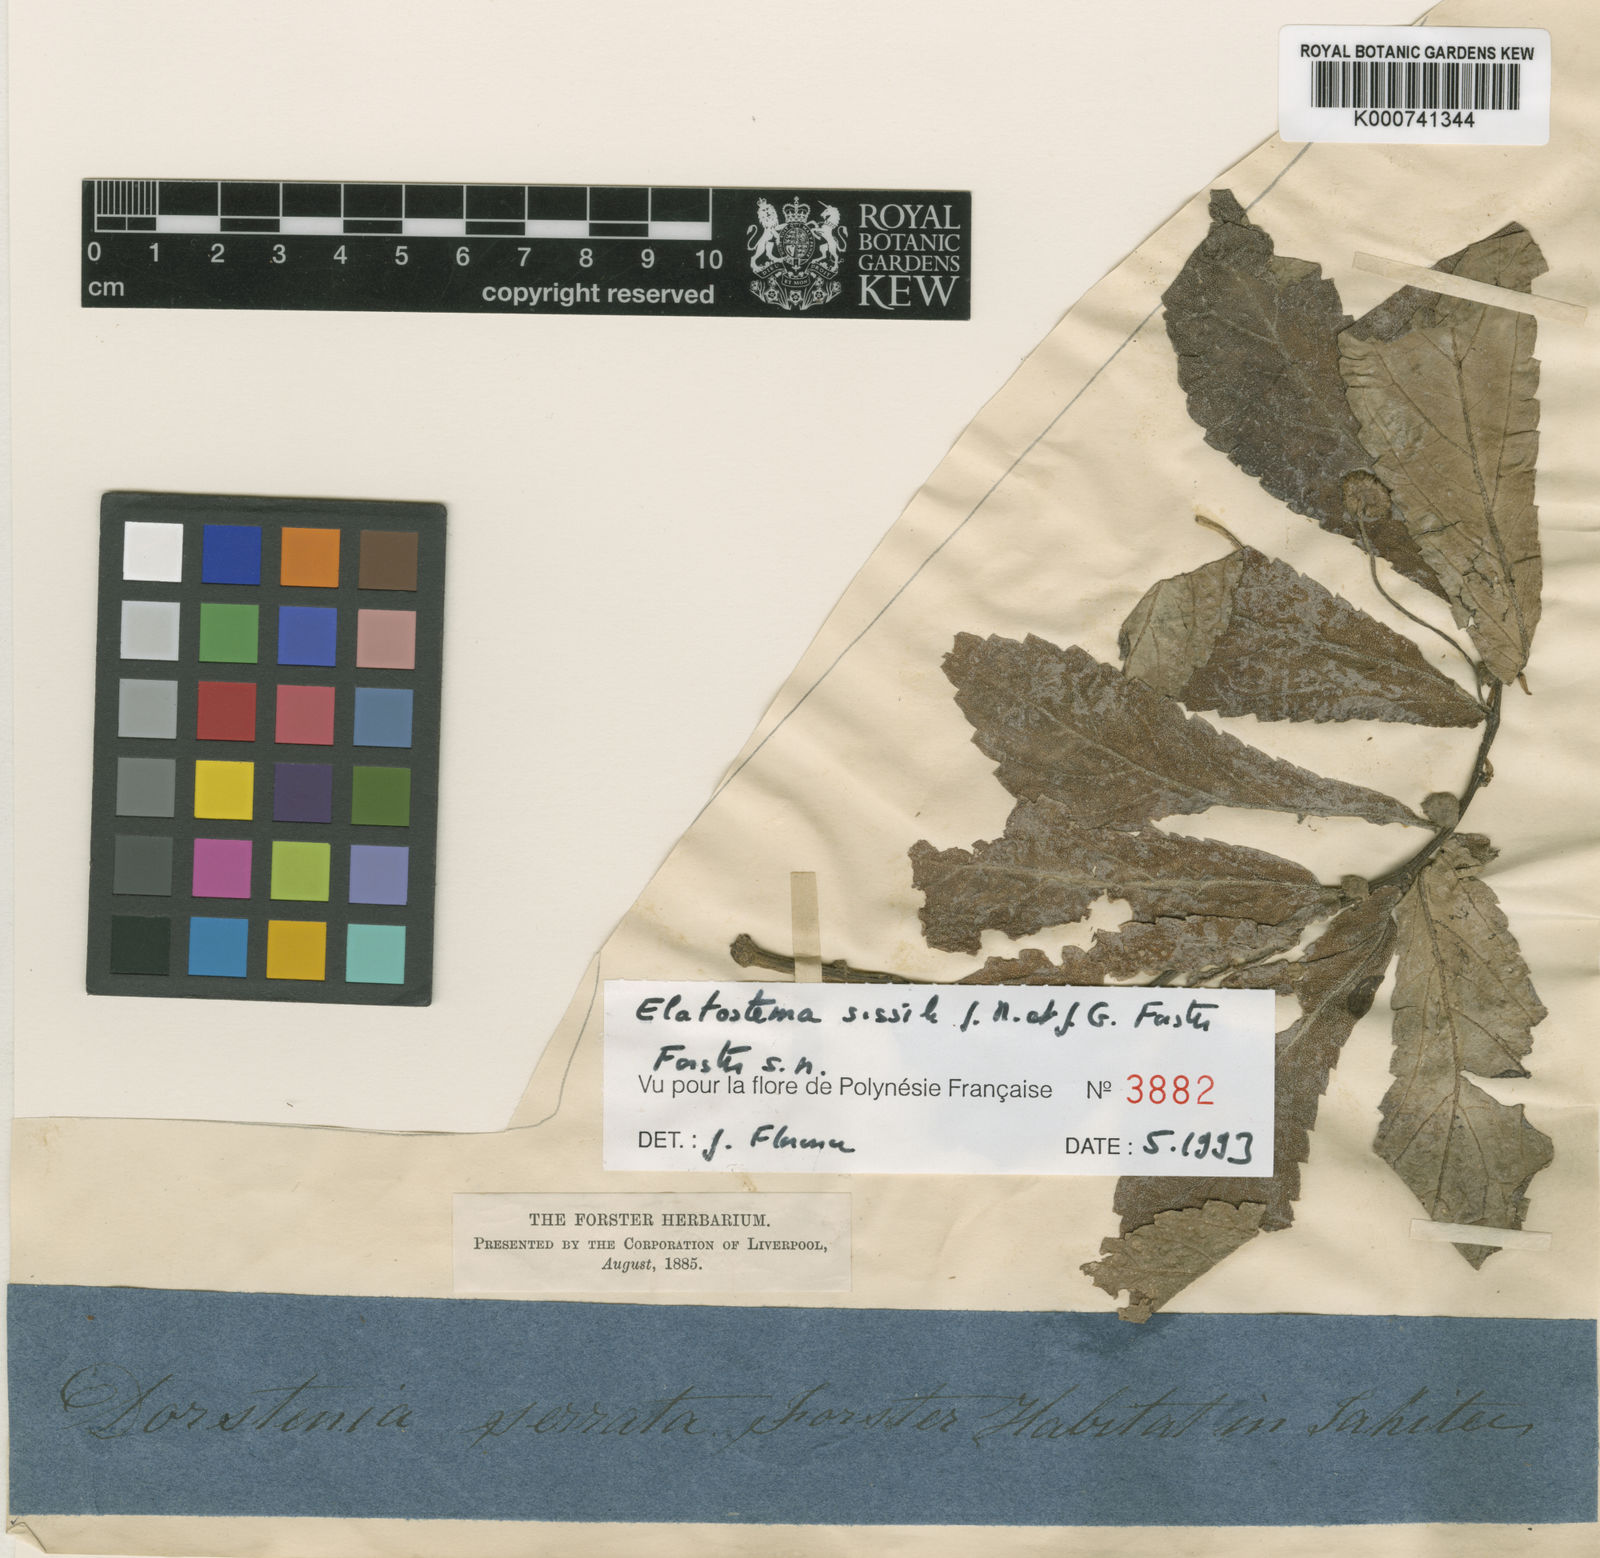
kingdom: Plantae
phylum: Tracheophyta
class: Magnoliopsida
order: Rosales
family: Urticaceae
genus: Elatostema
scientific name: Elatostema
